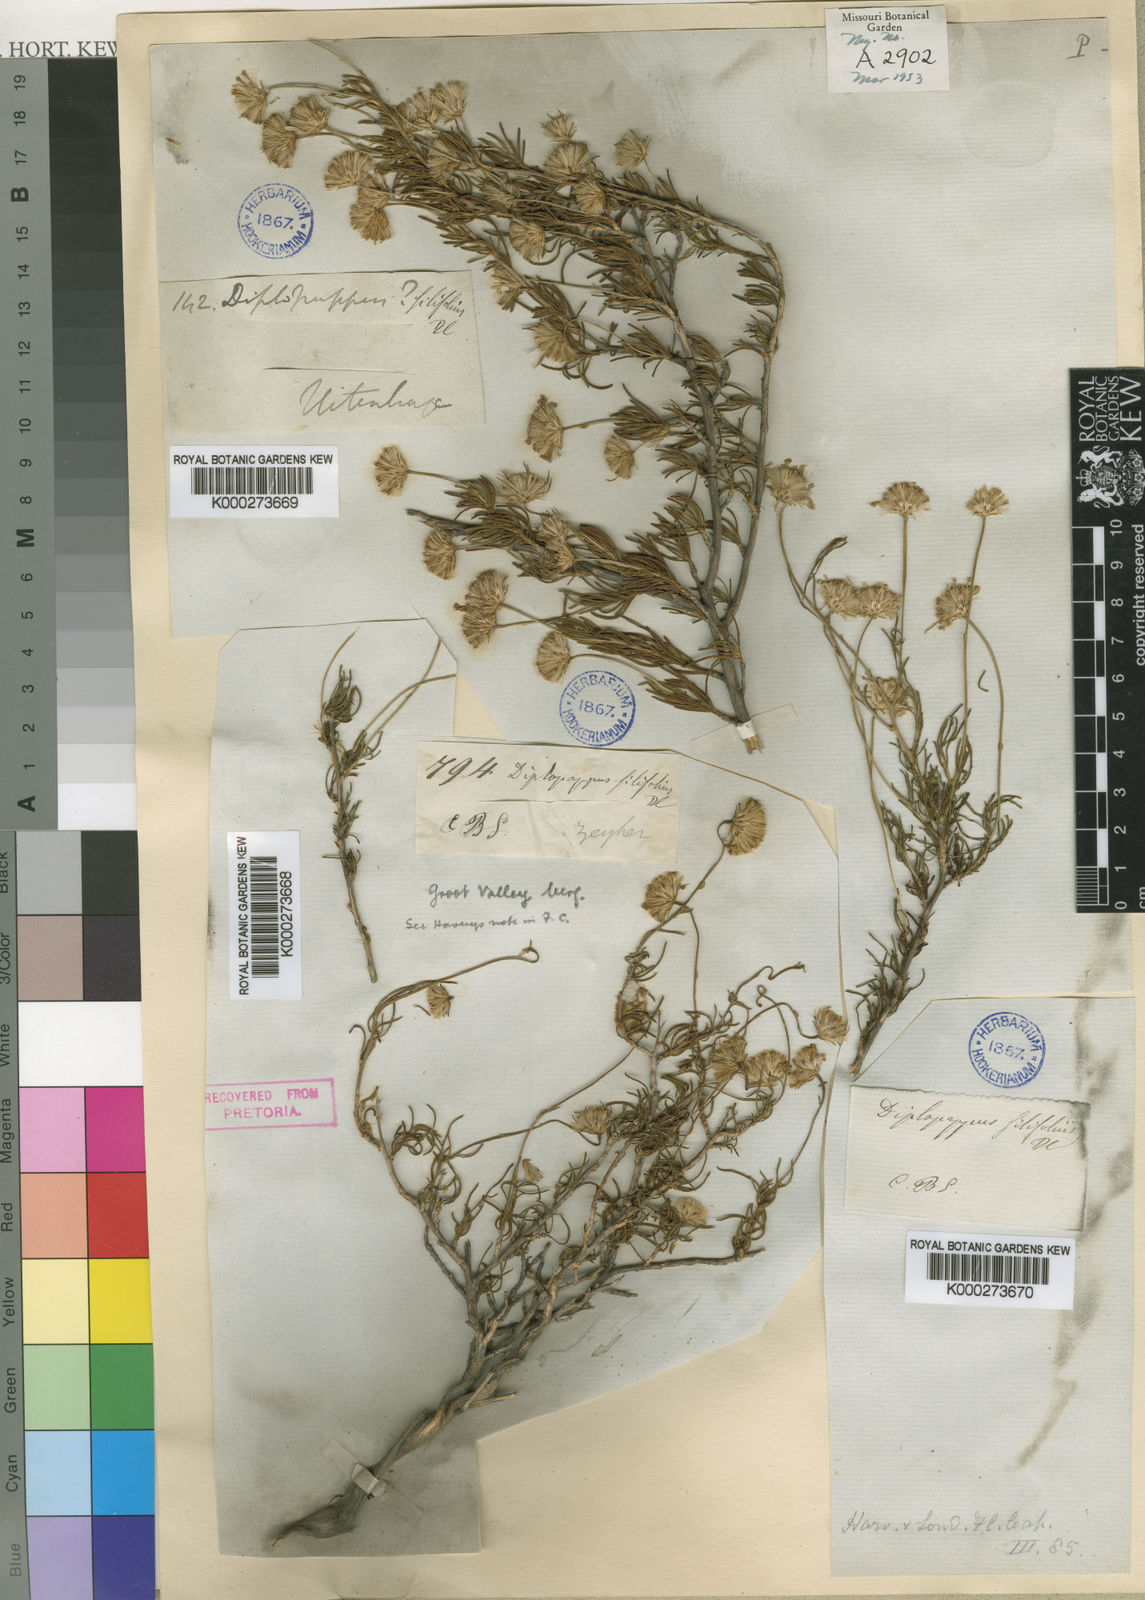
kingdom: Plantae
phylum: Tracheophyta
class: Magnoliopsida
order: Asterales
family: Asteraceae
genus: Felicia
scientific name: Felicia filifolia
